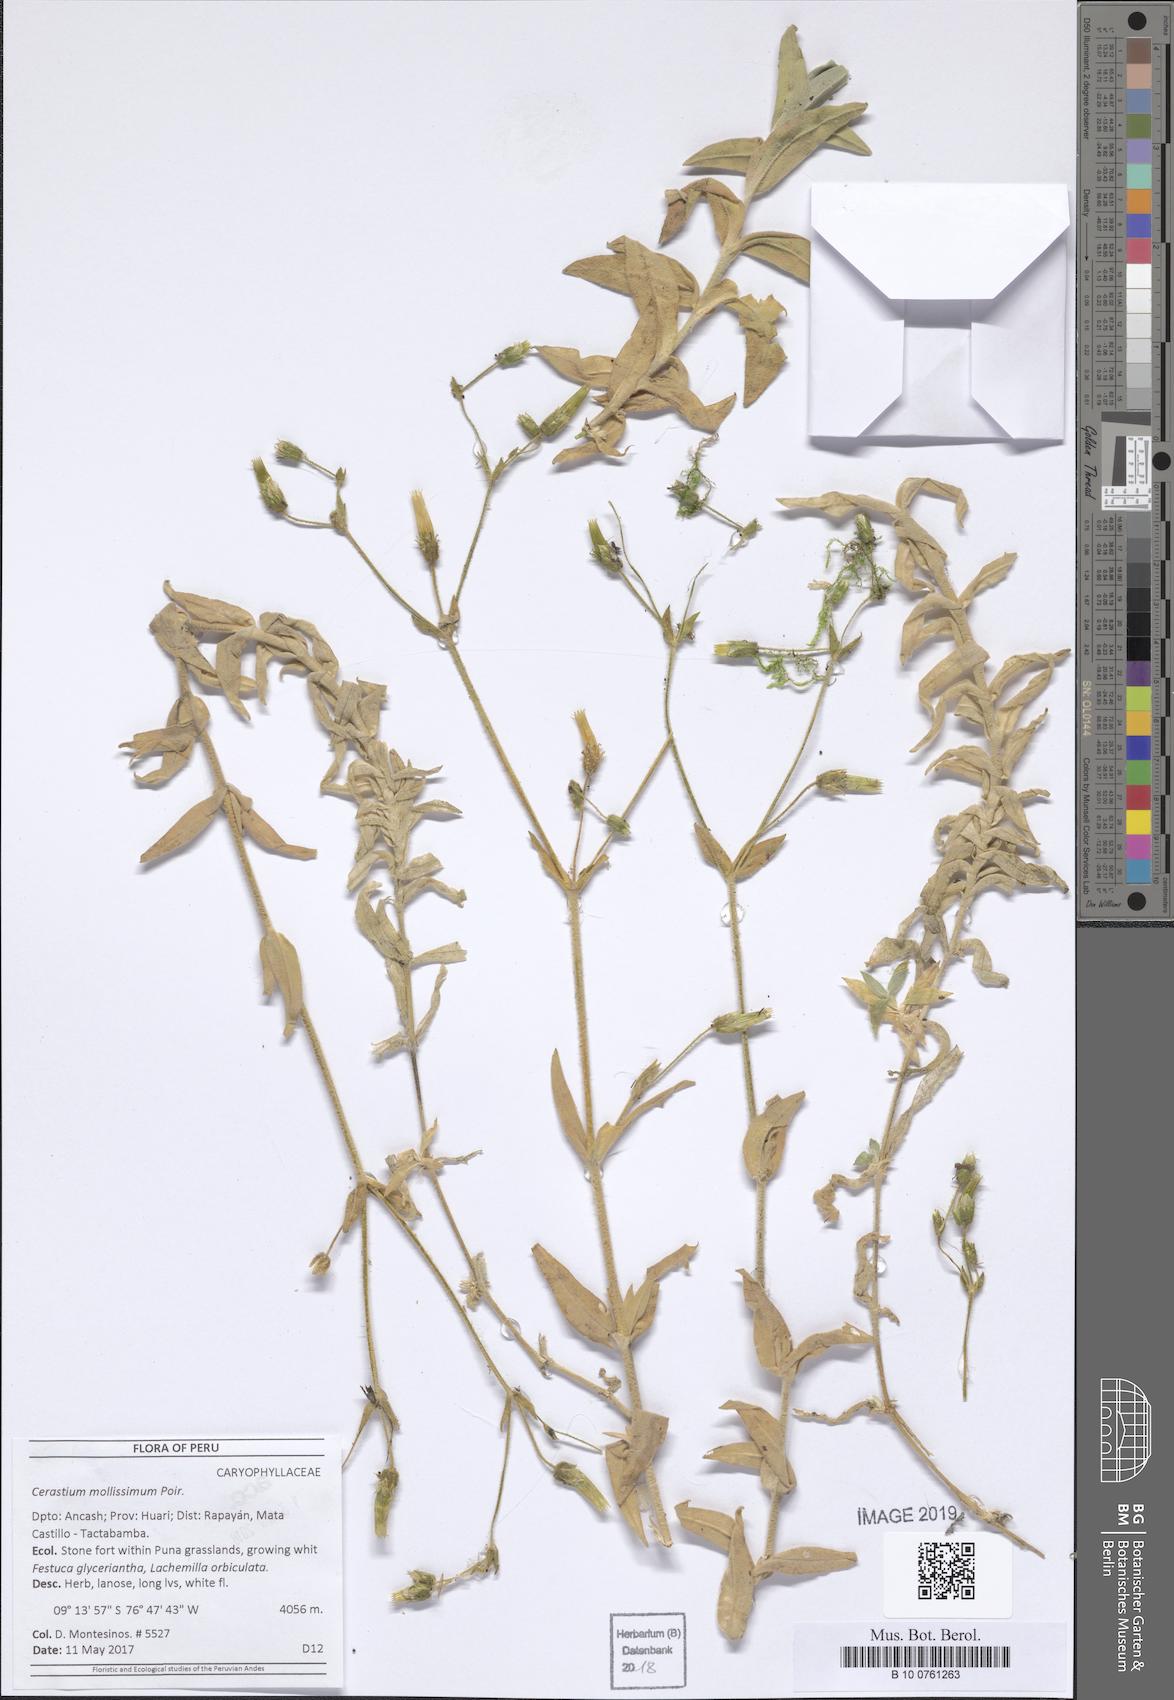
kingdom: Plantae
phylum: Tracheophyta
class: Magnoliopsida
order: Caryophyllales
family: Caryophyllaceae
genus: Cerastium
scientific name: Cerastium mollissimum
